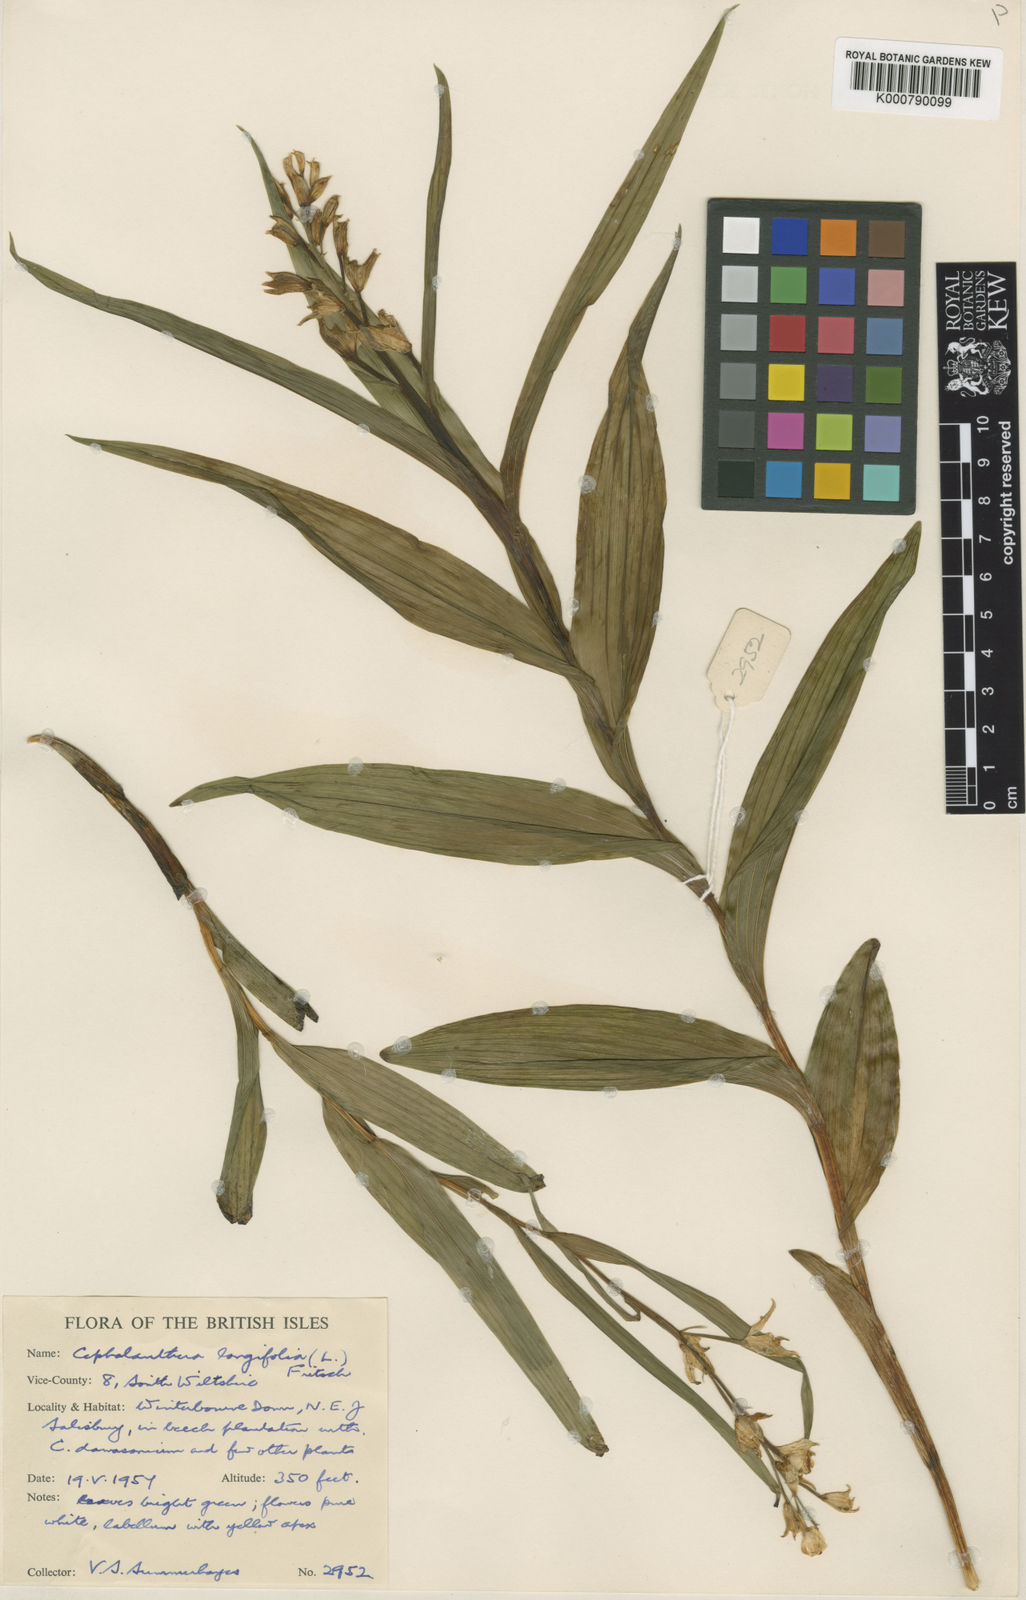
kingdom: Plantae
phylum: Tracheophyta
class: Liliopsida
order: Asparagales
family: Orchidaceae
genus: Cephalanthera
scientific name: Cephalanthera longifolia
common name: Narrow-leaved helleborine
